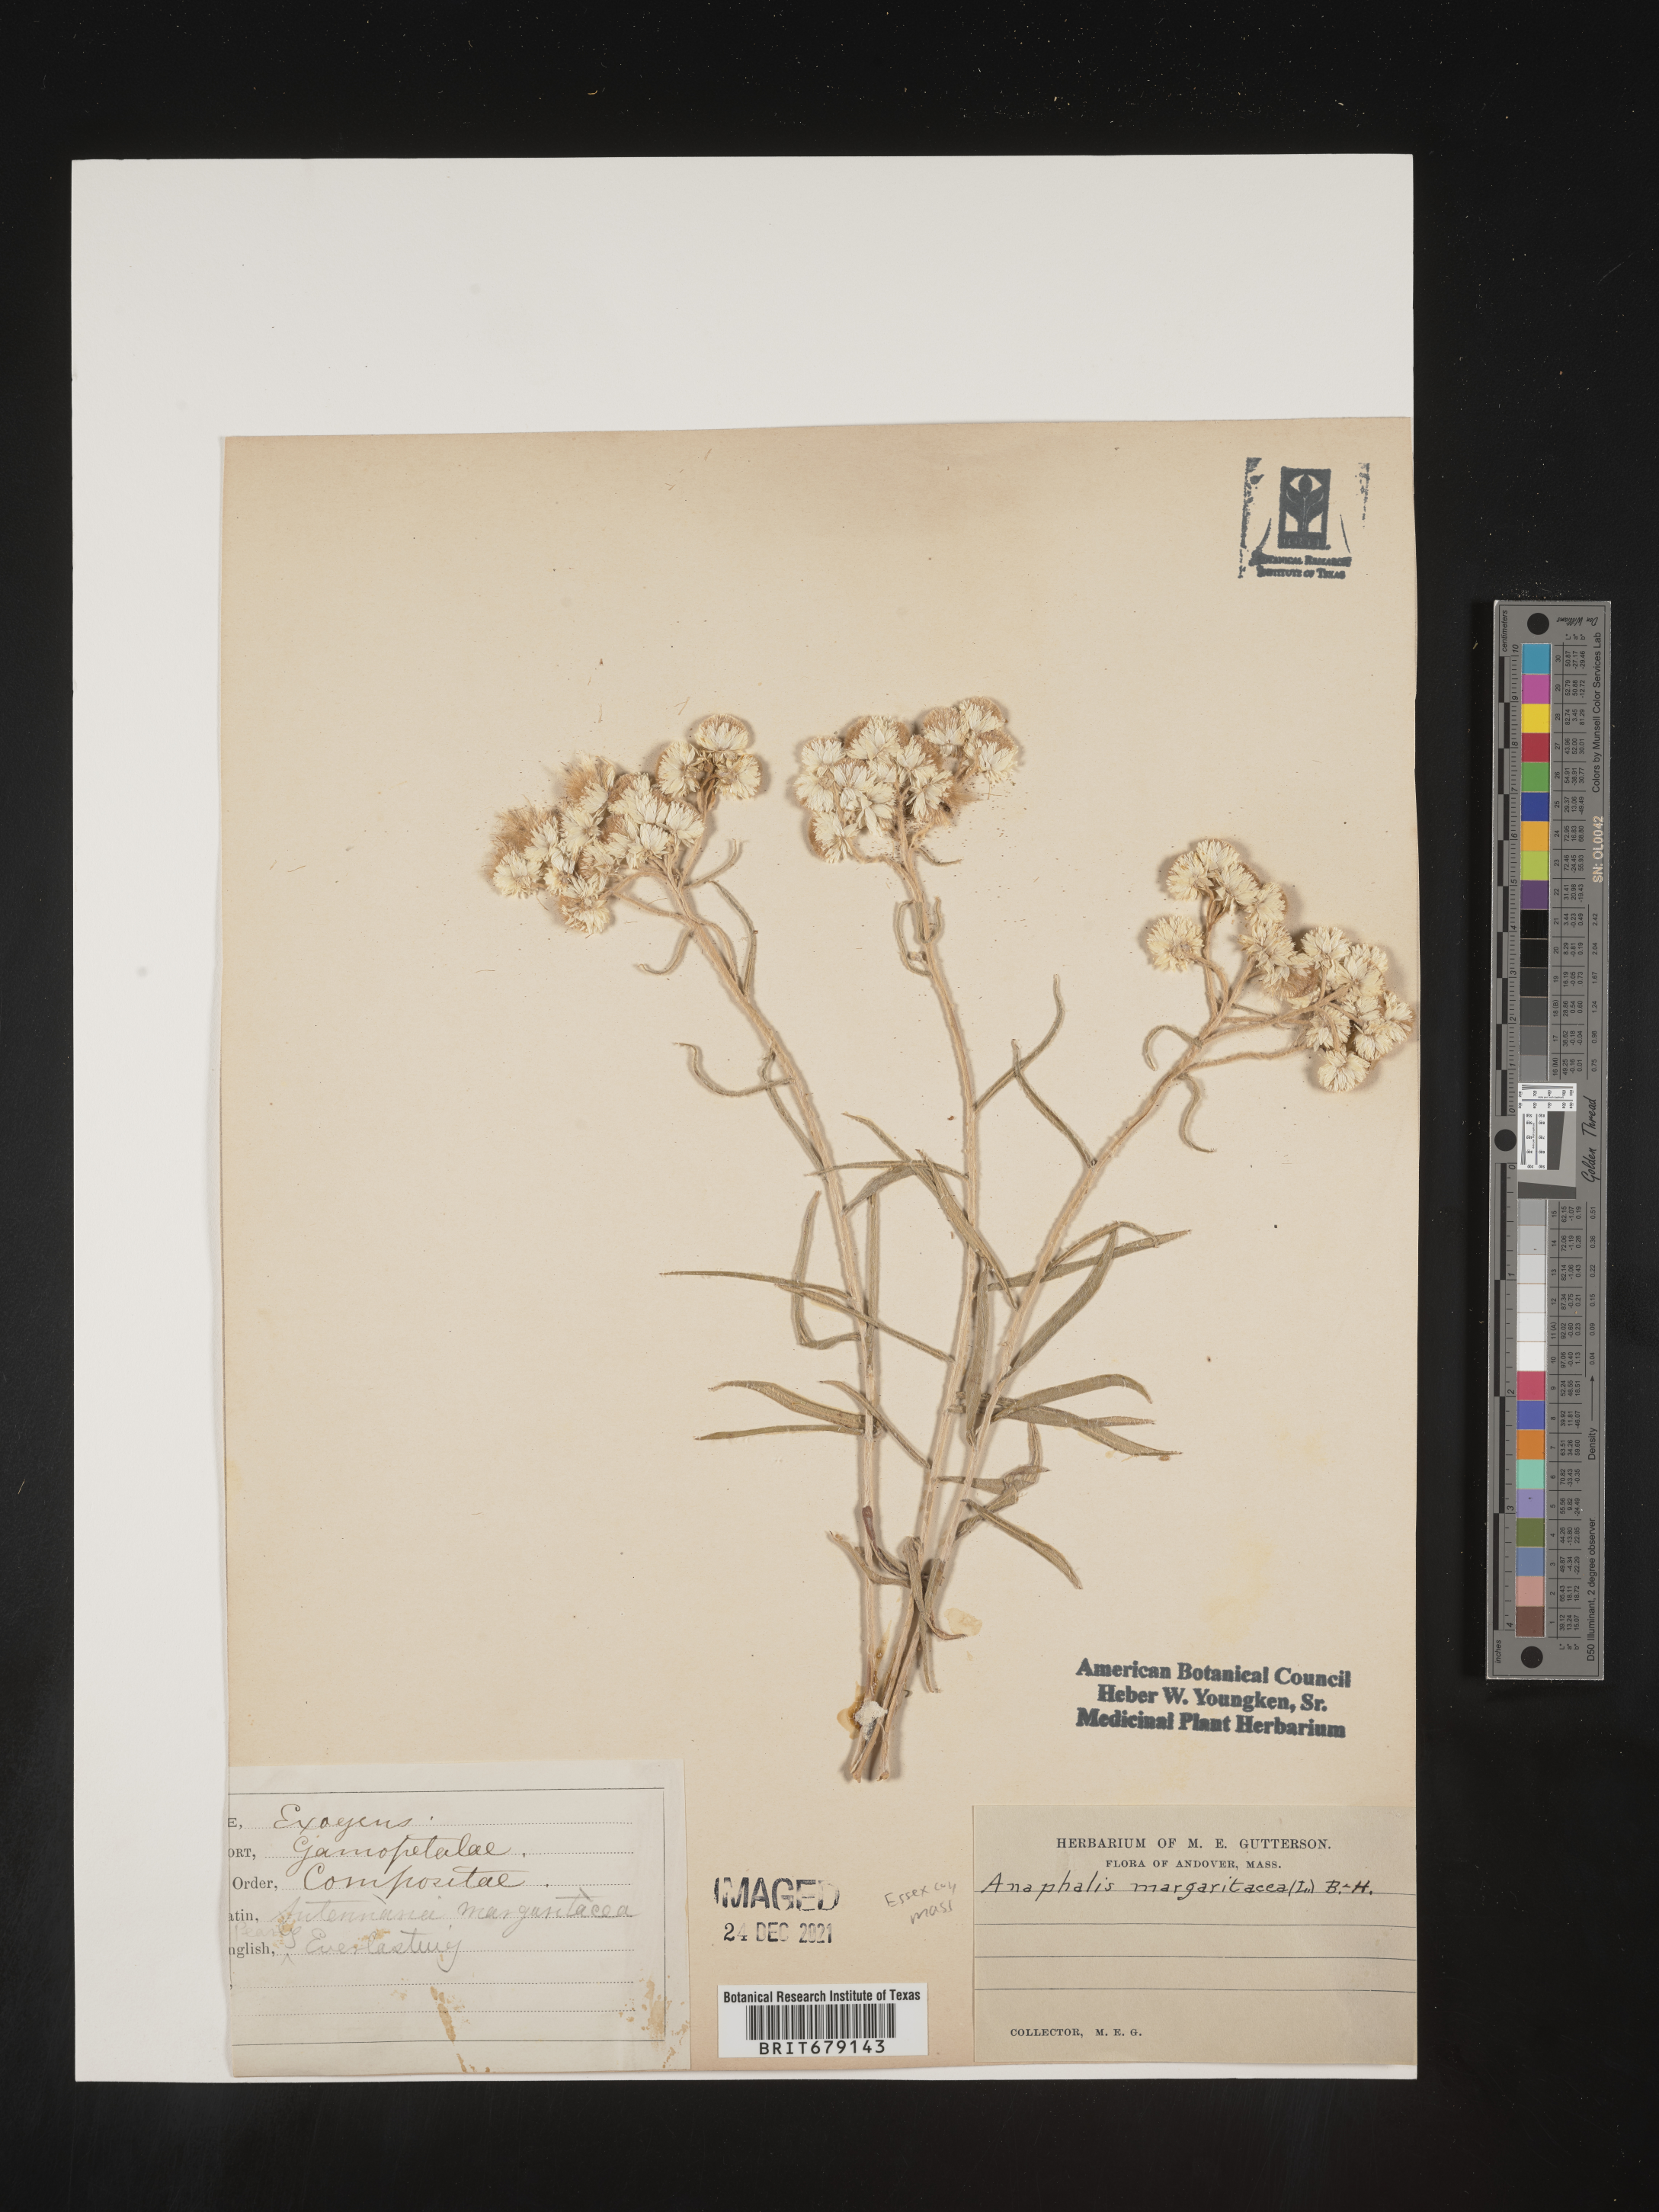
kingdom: Plantae
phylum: Tracheophyta
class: Magnoliopsida
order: Asterales
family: Asteraceae
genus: Anaphalis
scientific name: Anaphalis margaritacea
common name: Pearly everlasting
